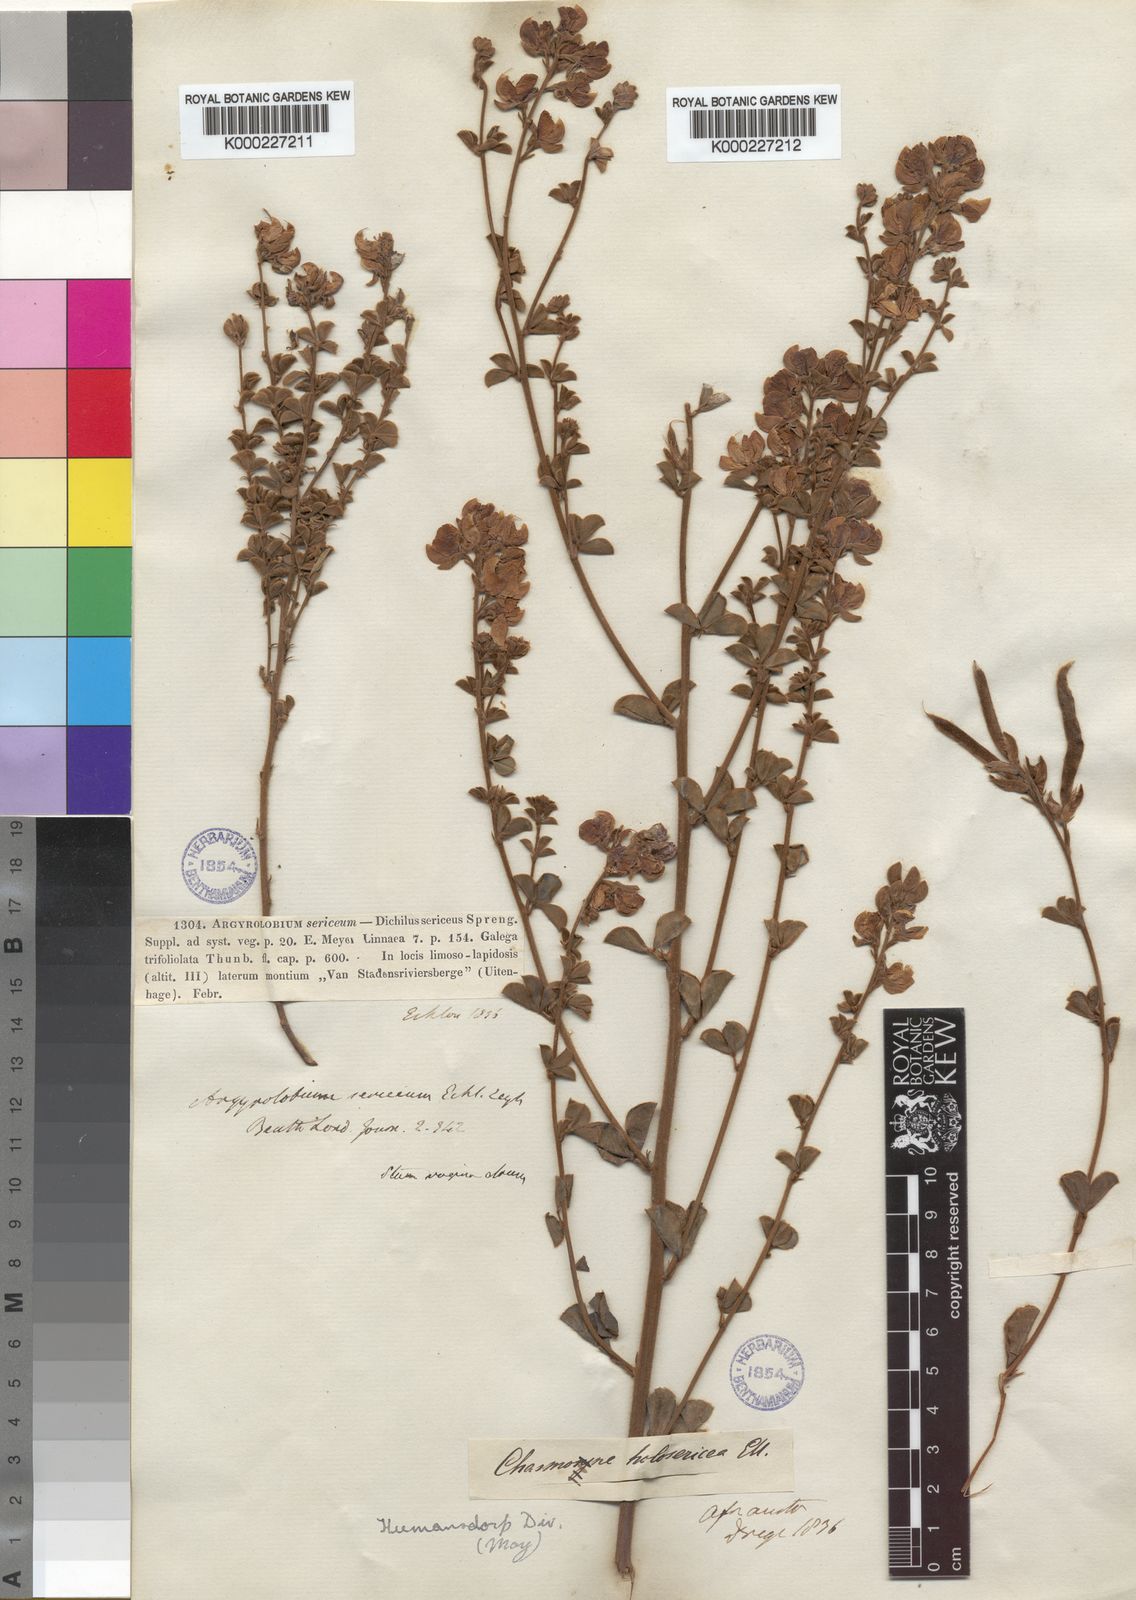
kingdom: Plantae
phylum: Tracheophyta
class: Magnoliopsida
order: Fabales
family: Fabaceae
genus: Argyrolobium
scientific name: Argyrolobium trifoliatum
